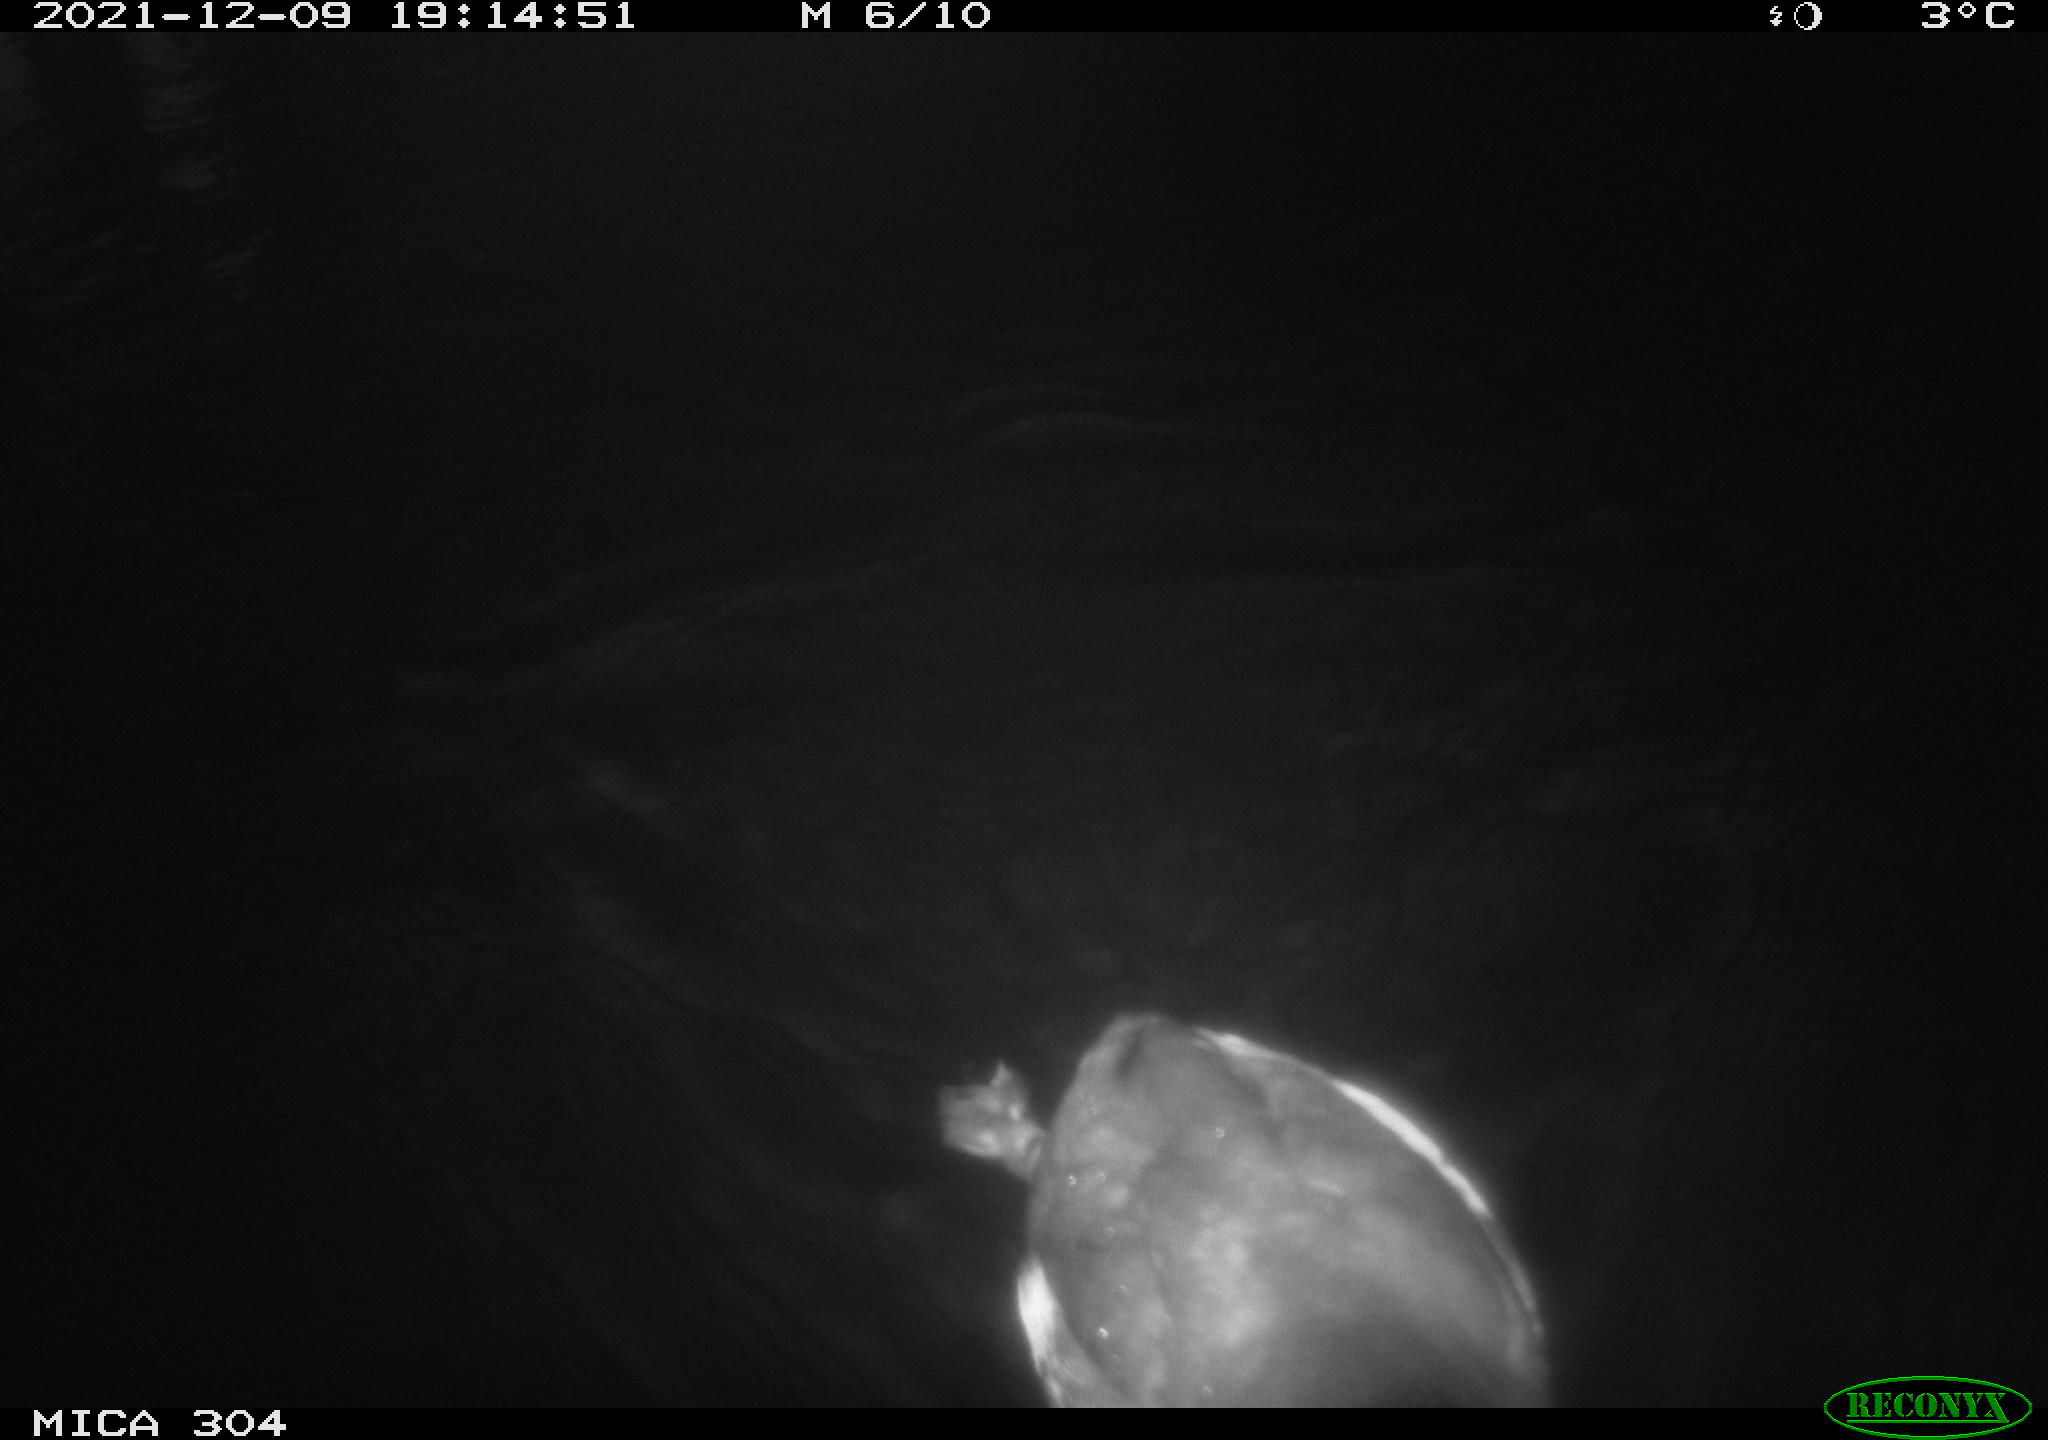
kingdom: Animalia
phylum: Chordata
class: Aves
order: Anseriformes
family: Anatidae
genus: Anas
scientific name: Anas
